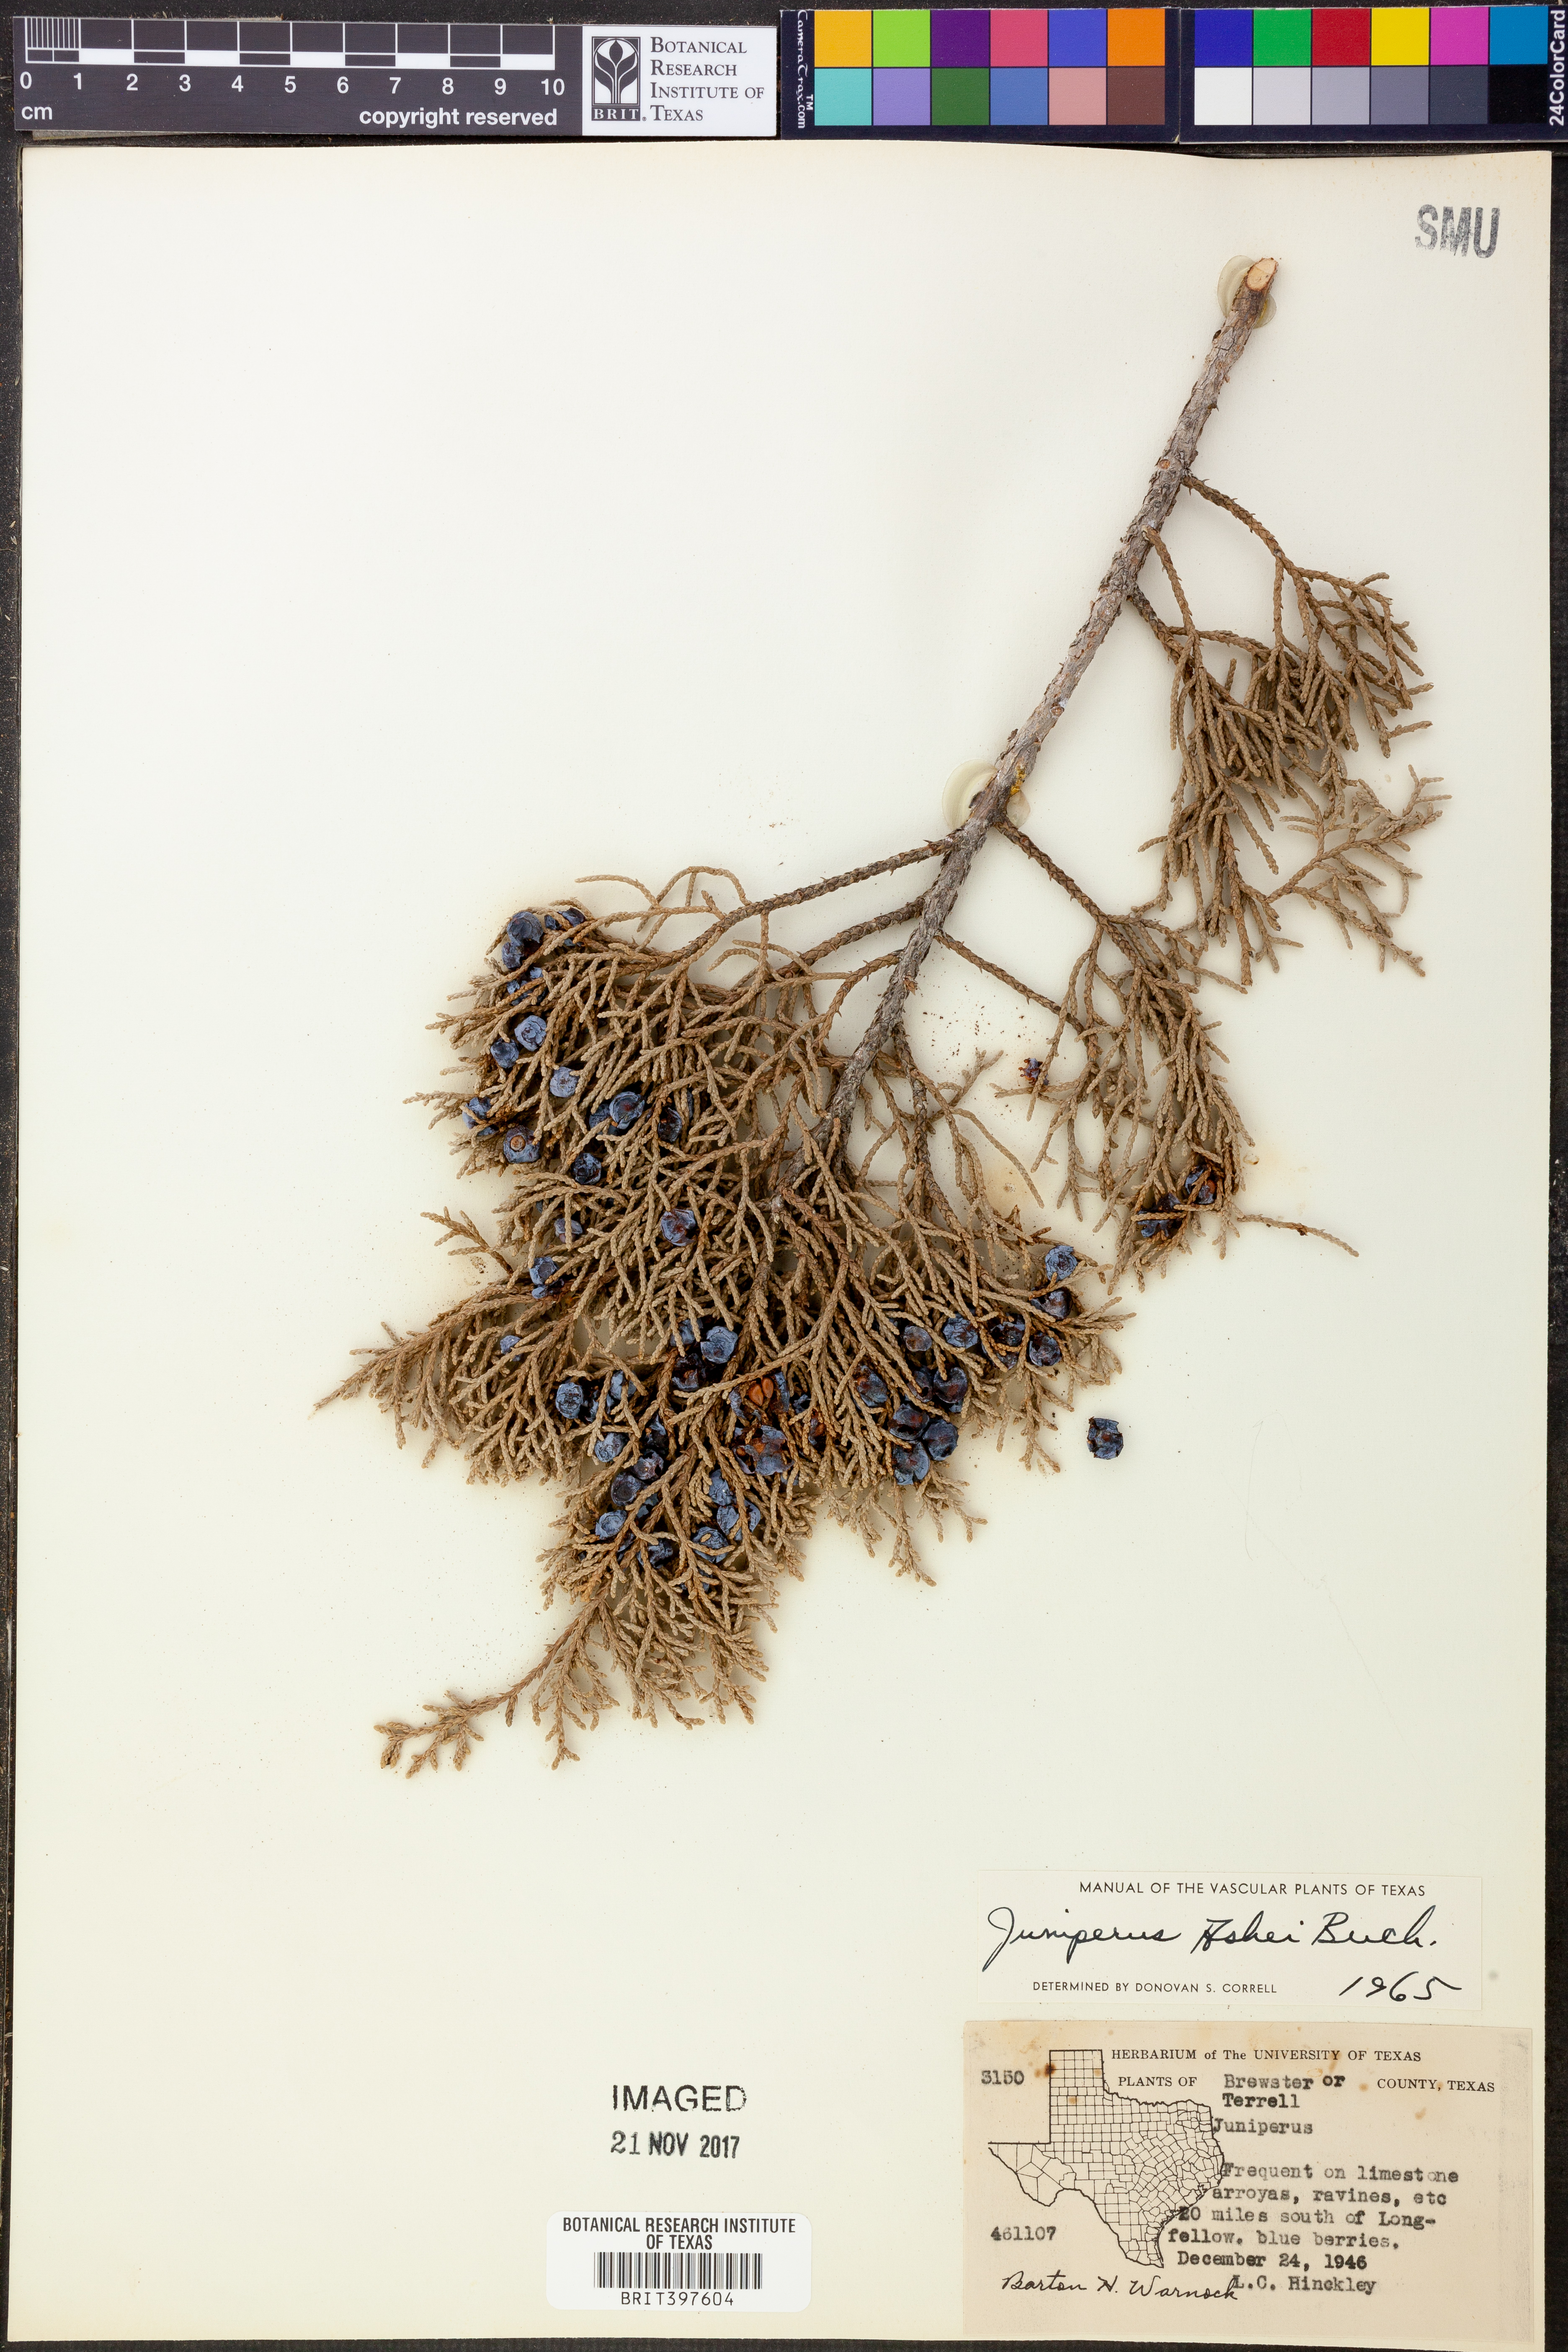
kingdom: Plantae
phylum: Tracheophyta
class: Pinopsida
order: Pinales
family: Cupressaceae
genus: Juniperus
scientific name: Juniperus ashei
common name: Mexican juniper
